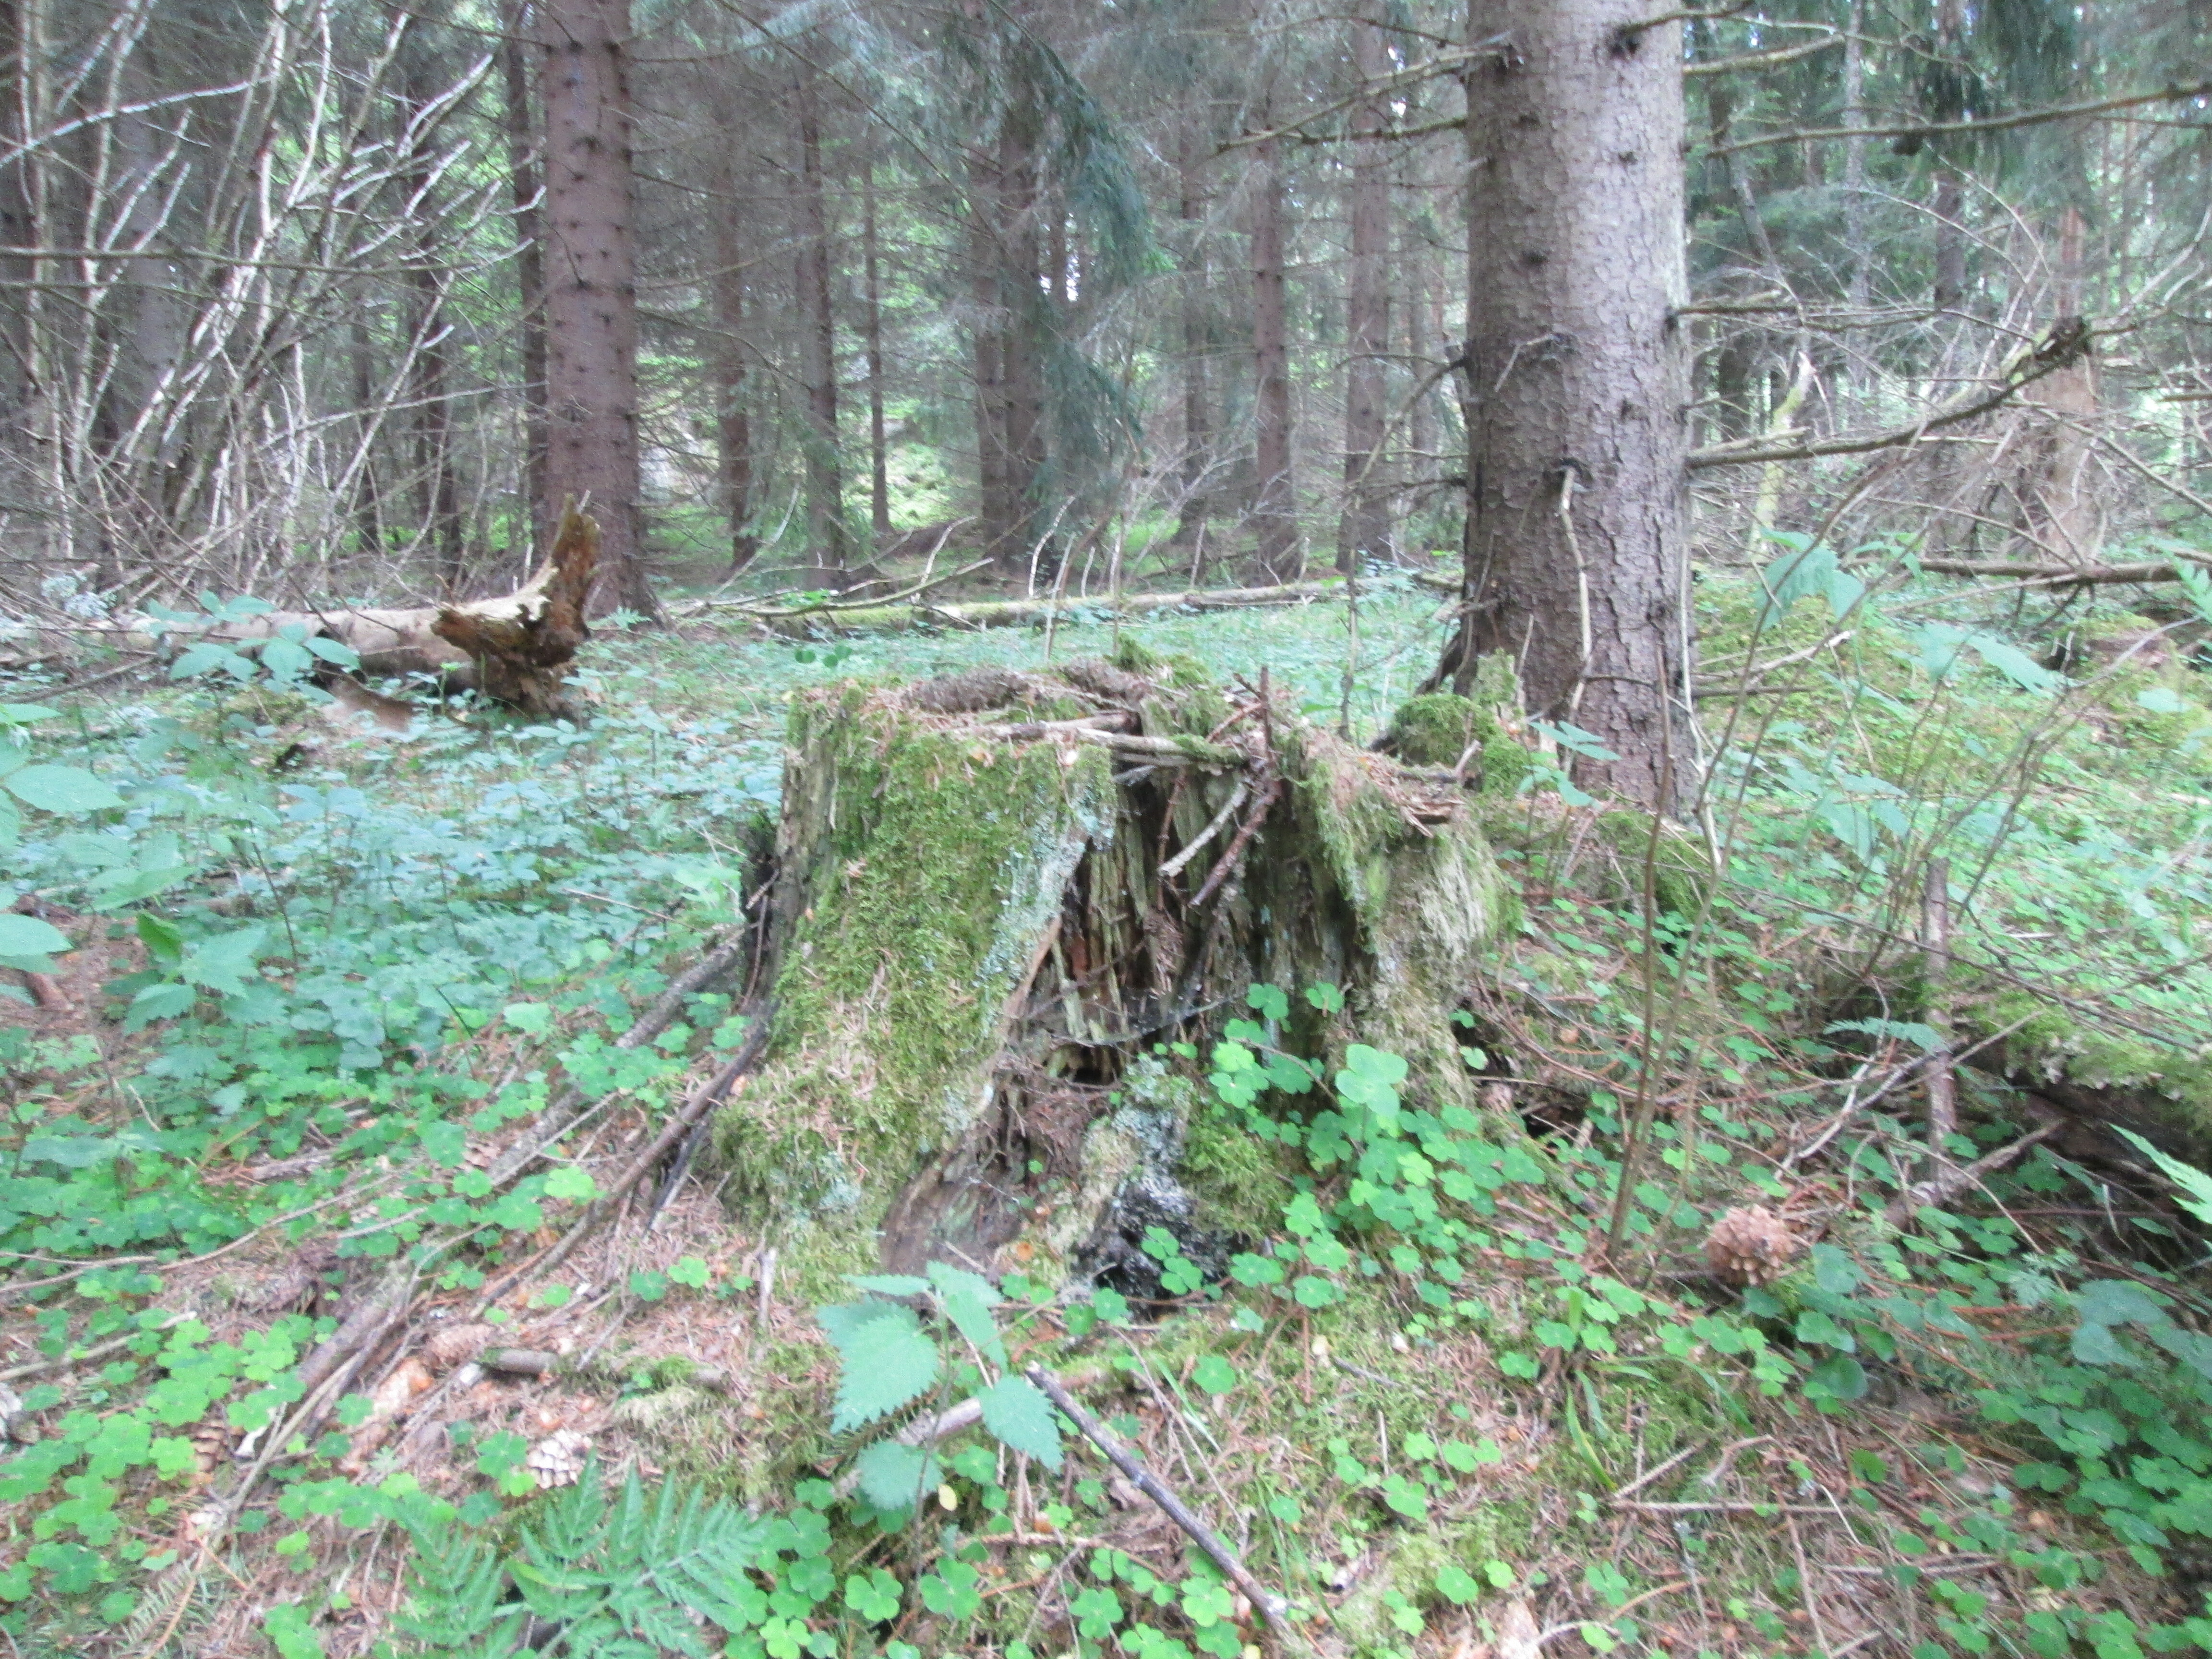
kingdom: Plantae
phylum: Bryophyta
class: Bryopsida
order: Buxbaumiales
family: Buxbaumiaceae
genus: Buxbaumia
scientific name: Buxbaumia viridis
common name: Green shield-moss
